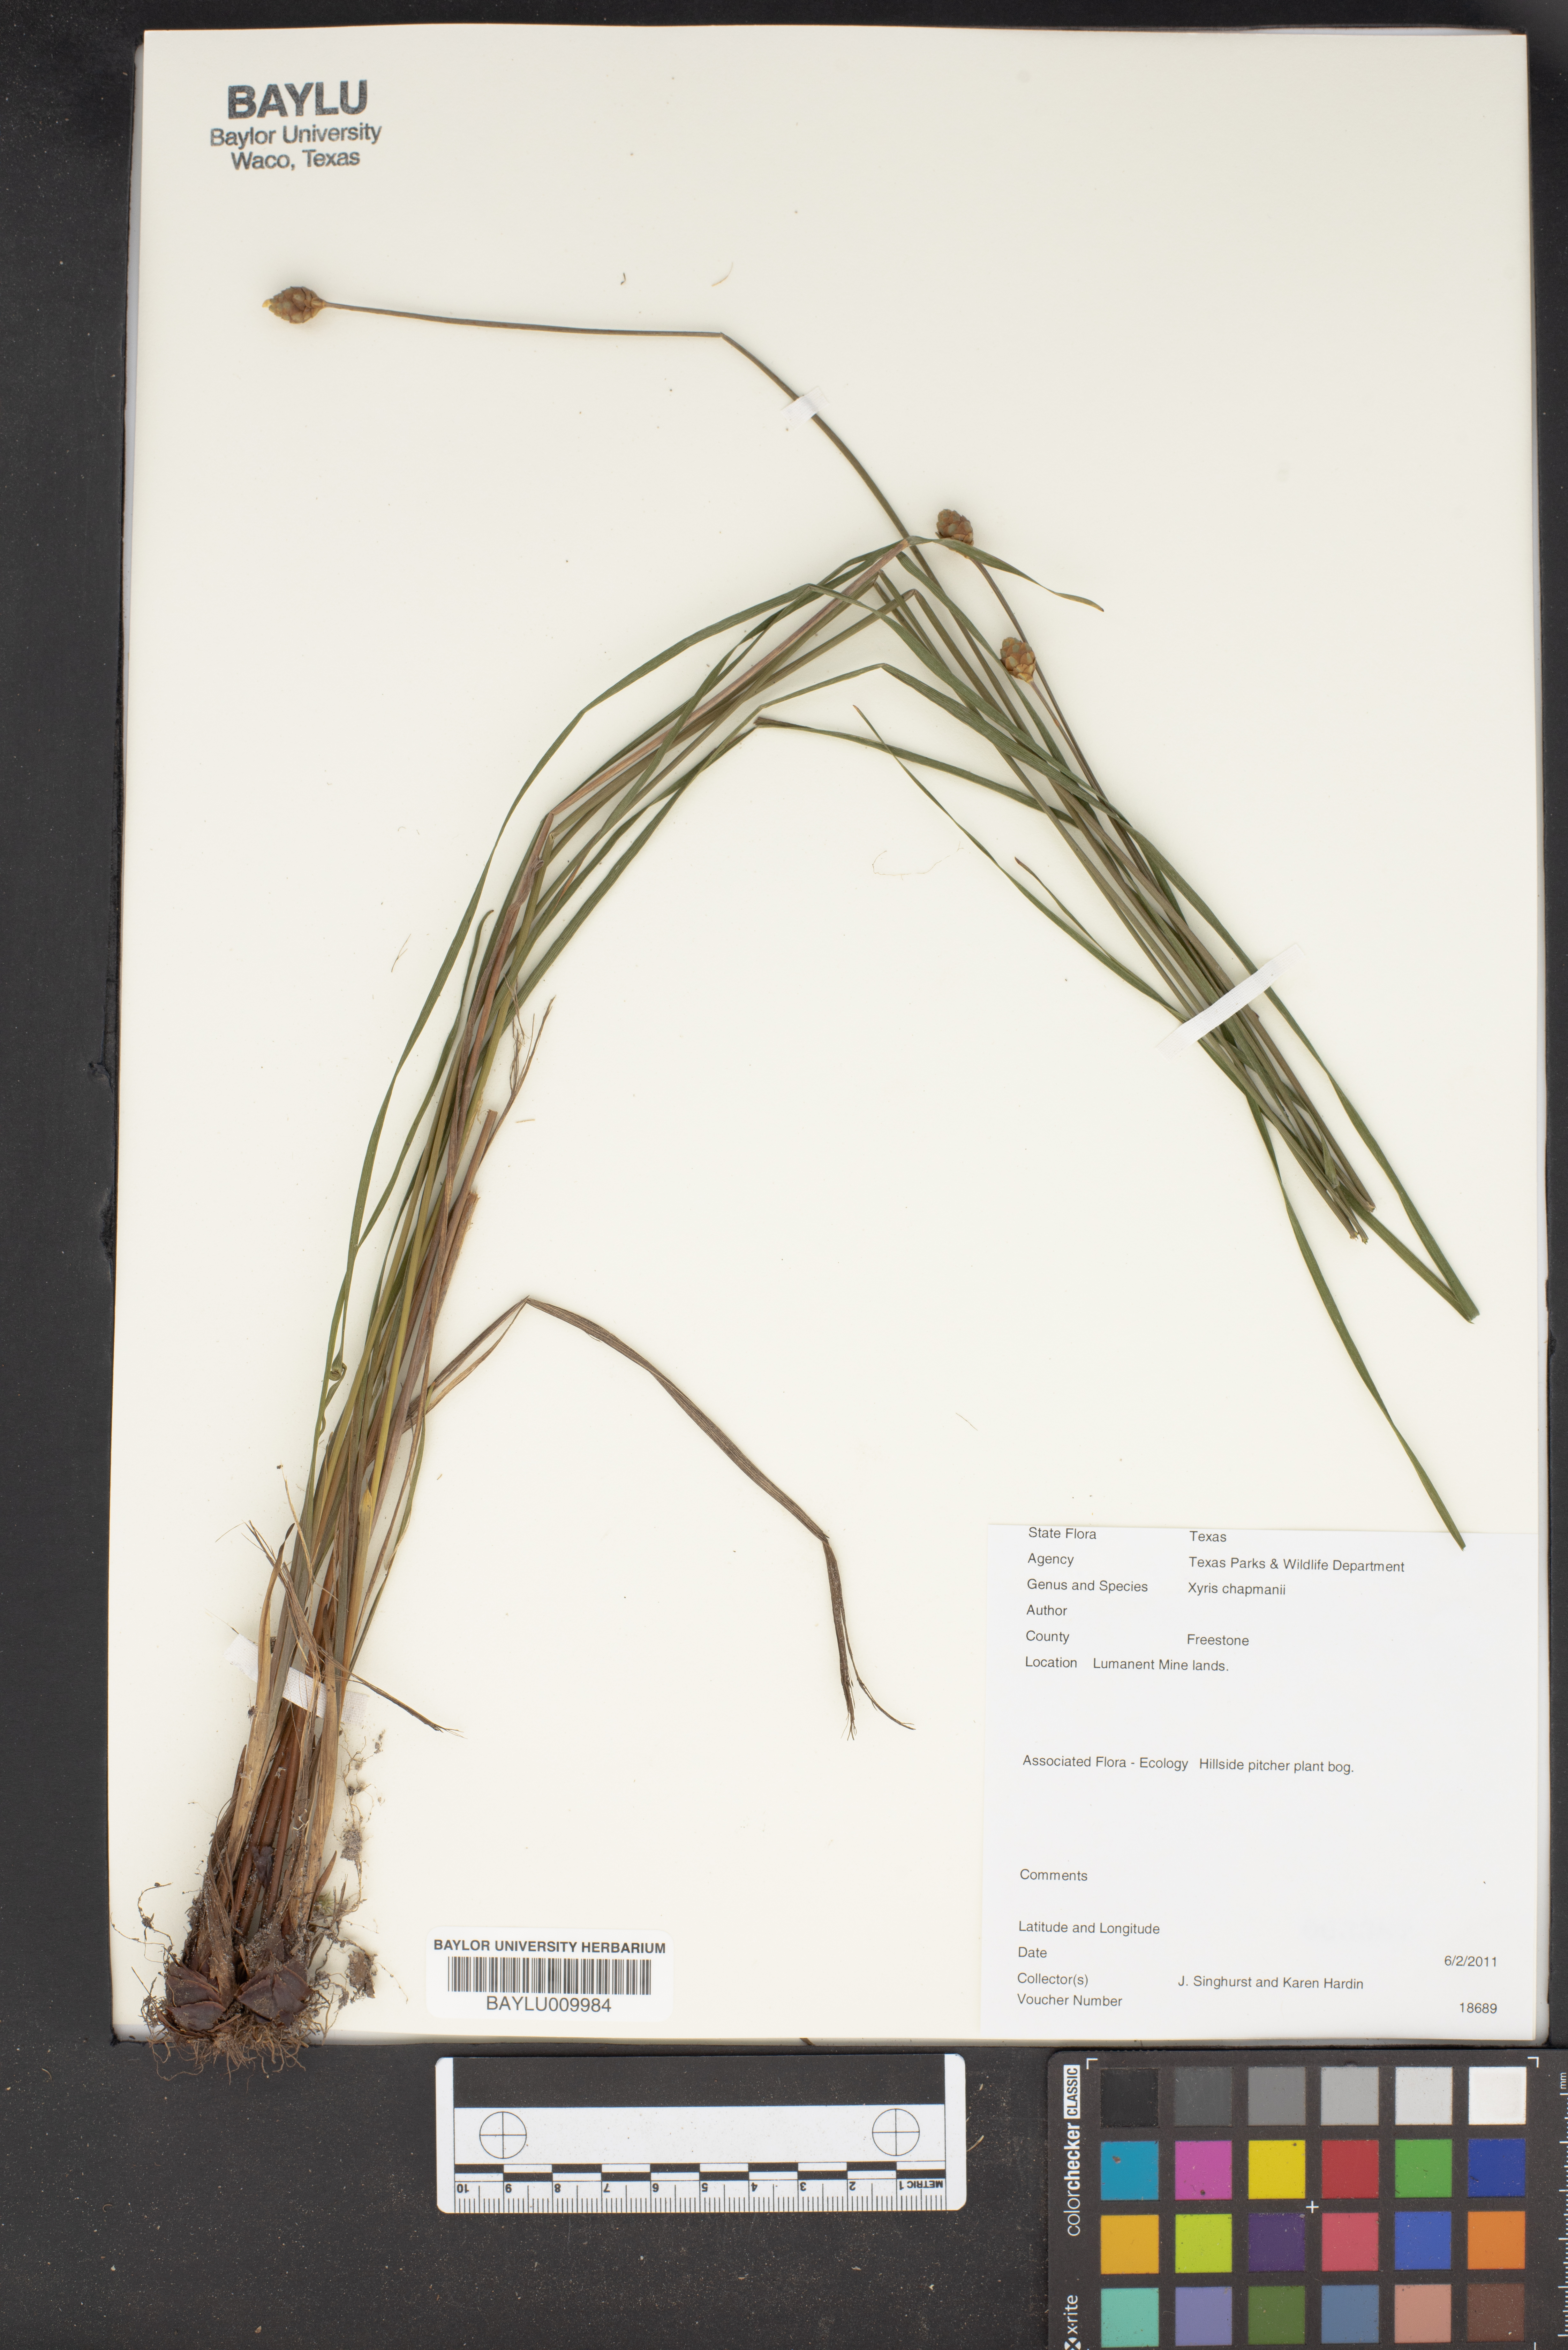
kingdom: Plantae
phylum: Tracheophyta
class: Liliopsida
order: Poales
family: Xyridaceae
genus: Xyris
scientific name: Xyris chapmanii
